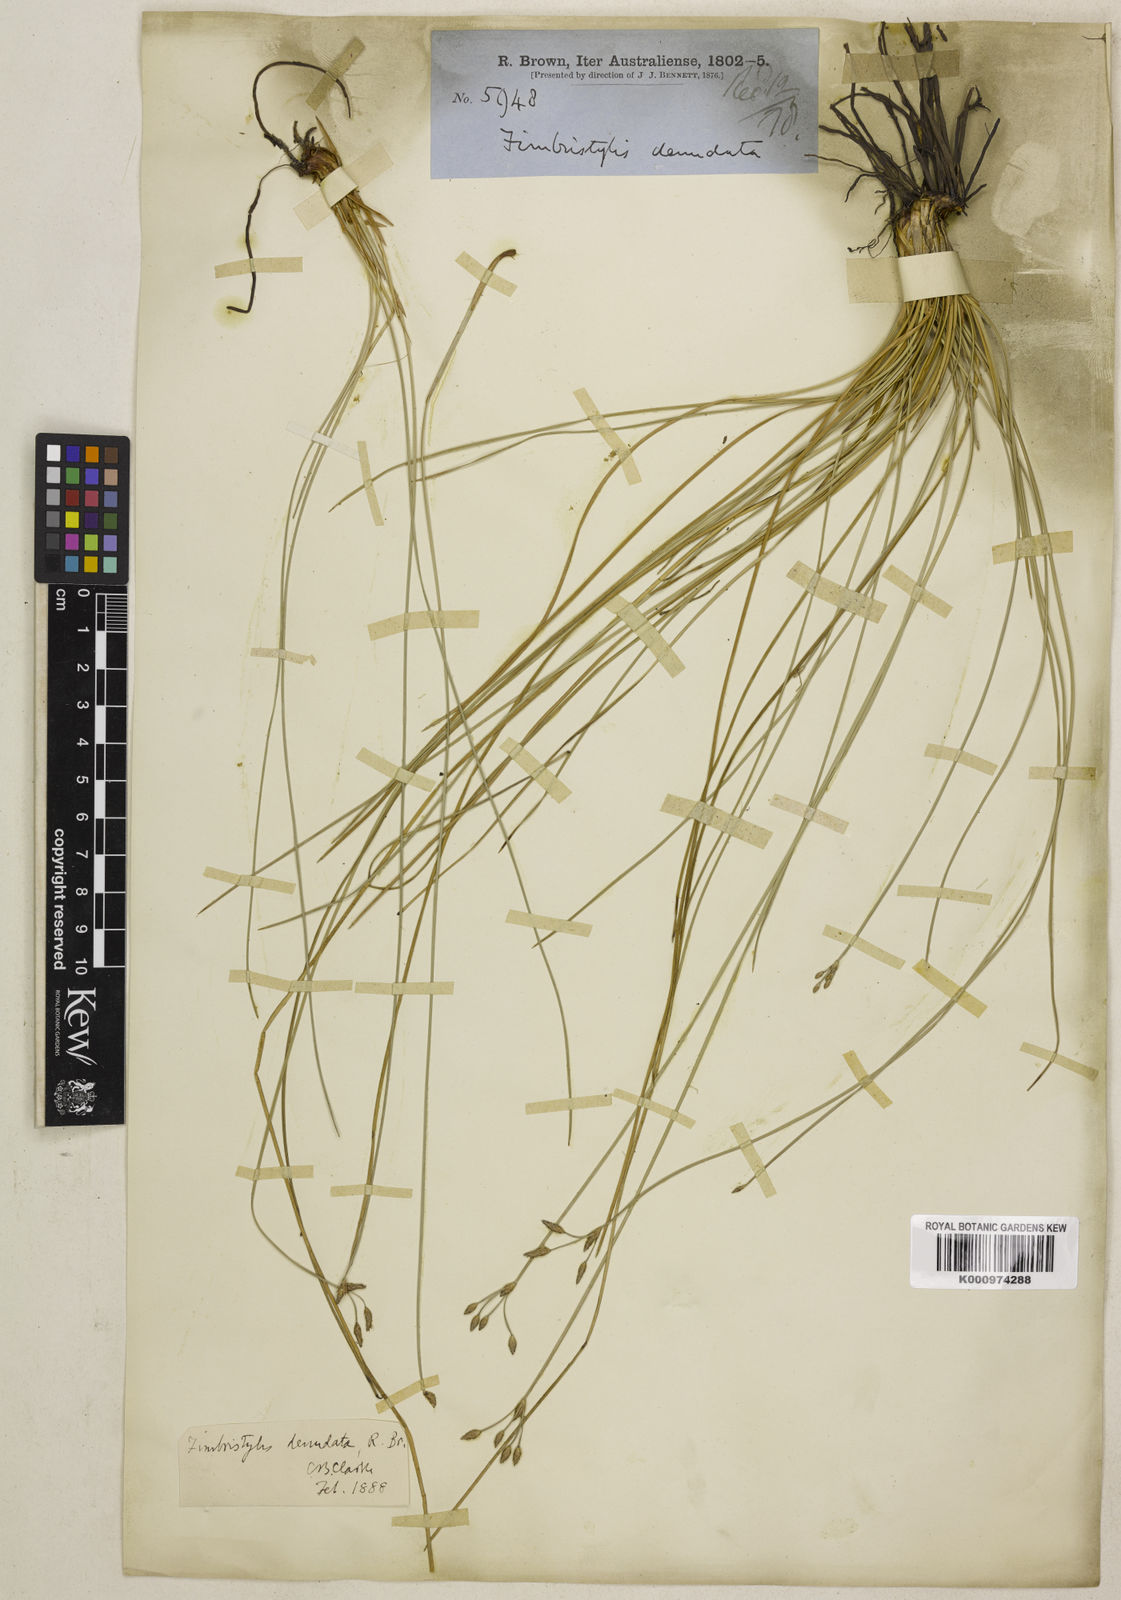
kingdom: Plantae
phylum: Tracheophyta
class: Liliopsida
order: Poales
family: Cyperaceae
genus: Fimbristylis
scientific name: Fimbristylis denudata
